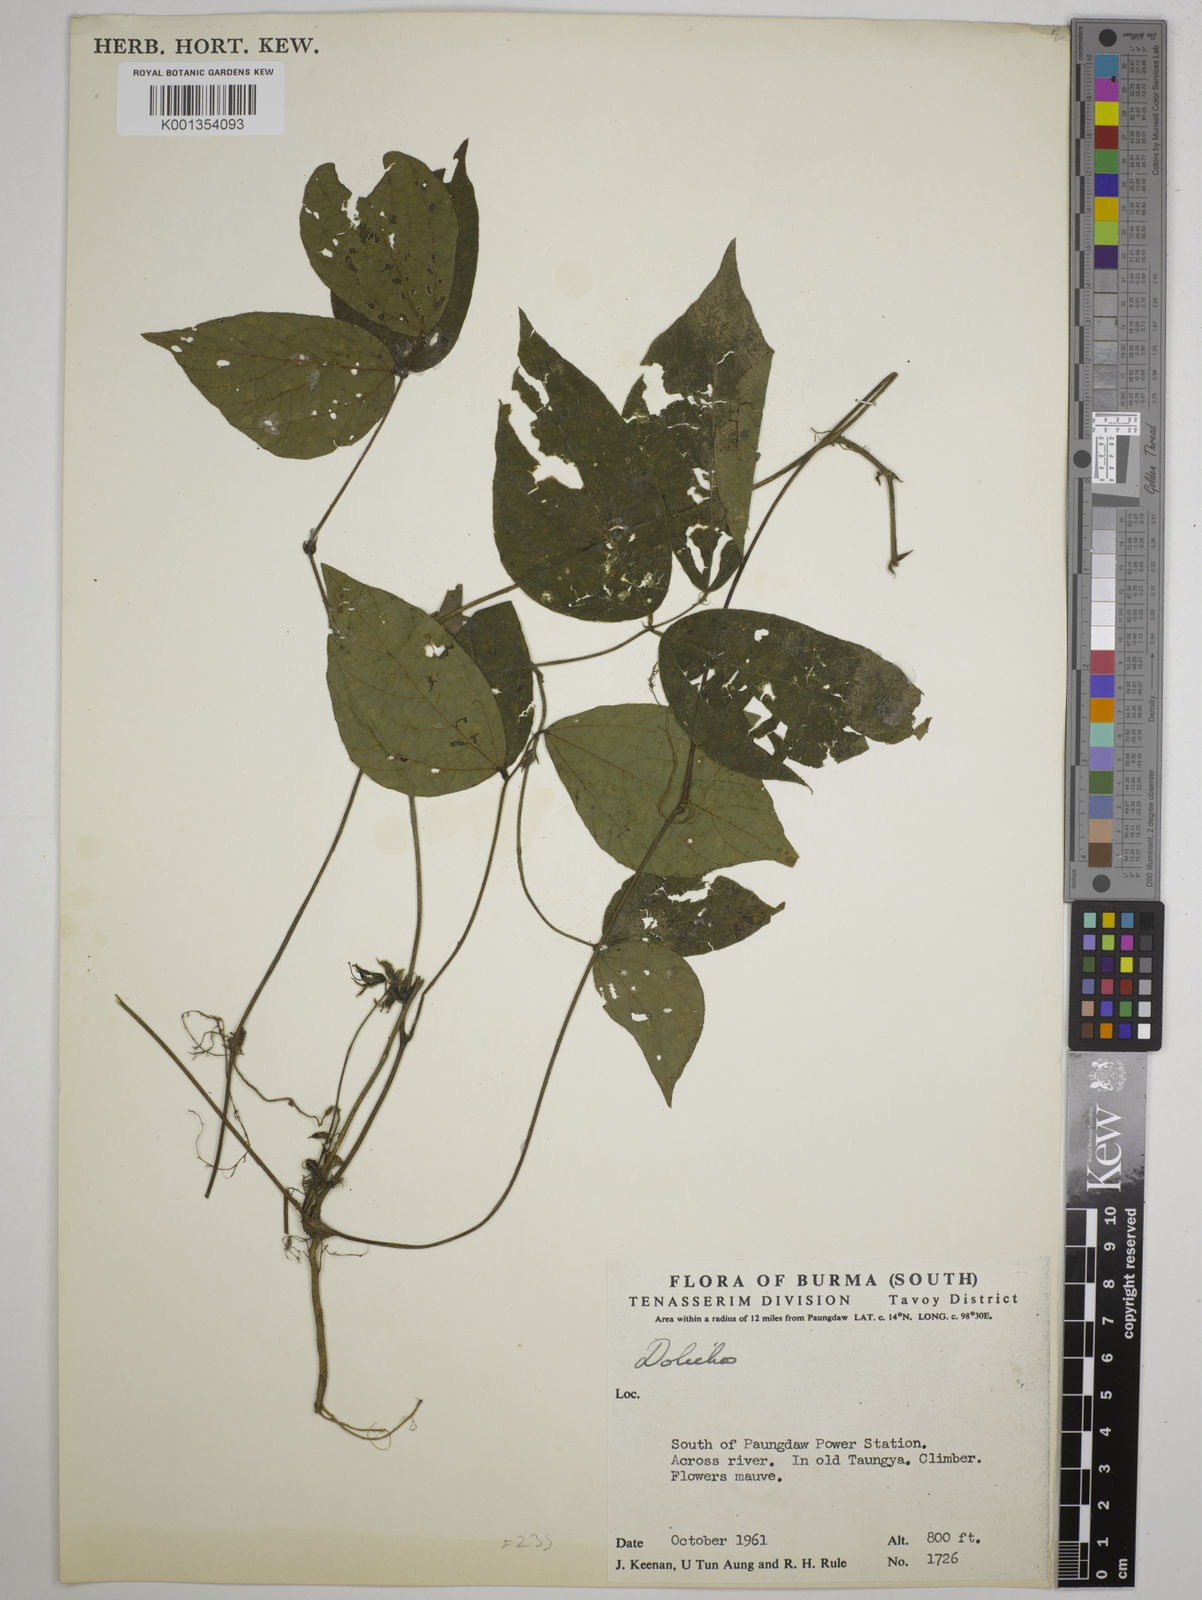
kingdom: Plantae
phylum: Tracheophyta
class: Magnoliopsida
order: Fabales
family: Fabaceae
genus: Dolichos
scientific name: Dolichos
